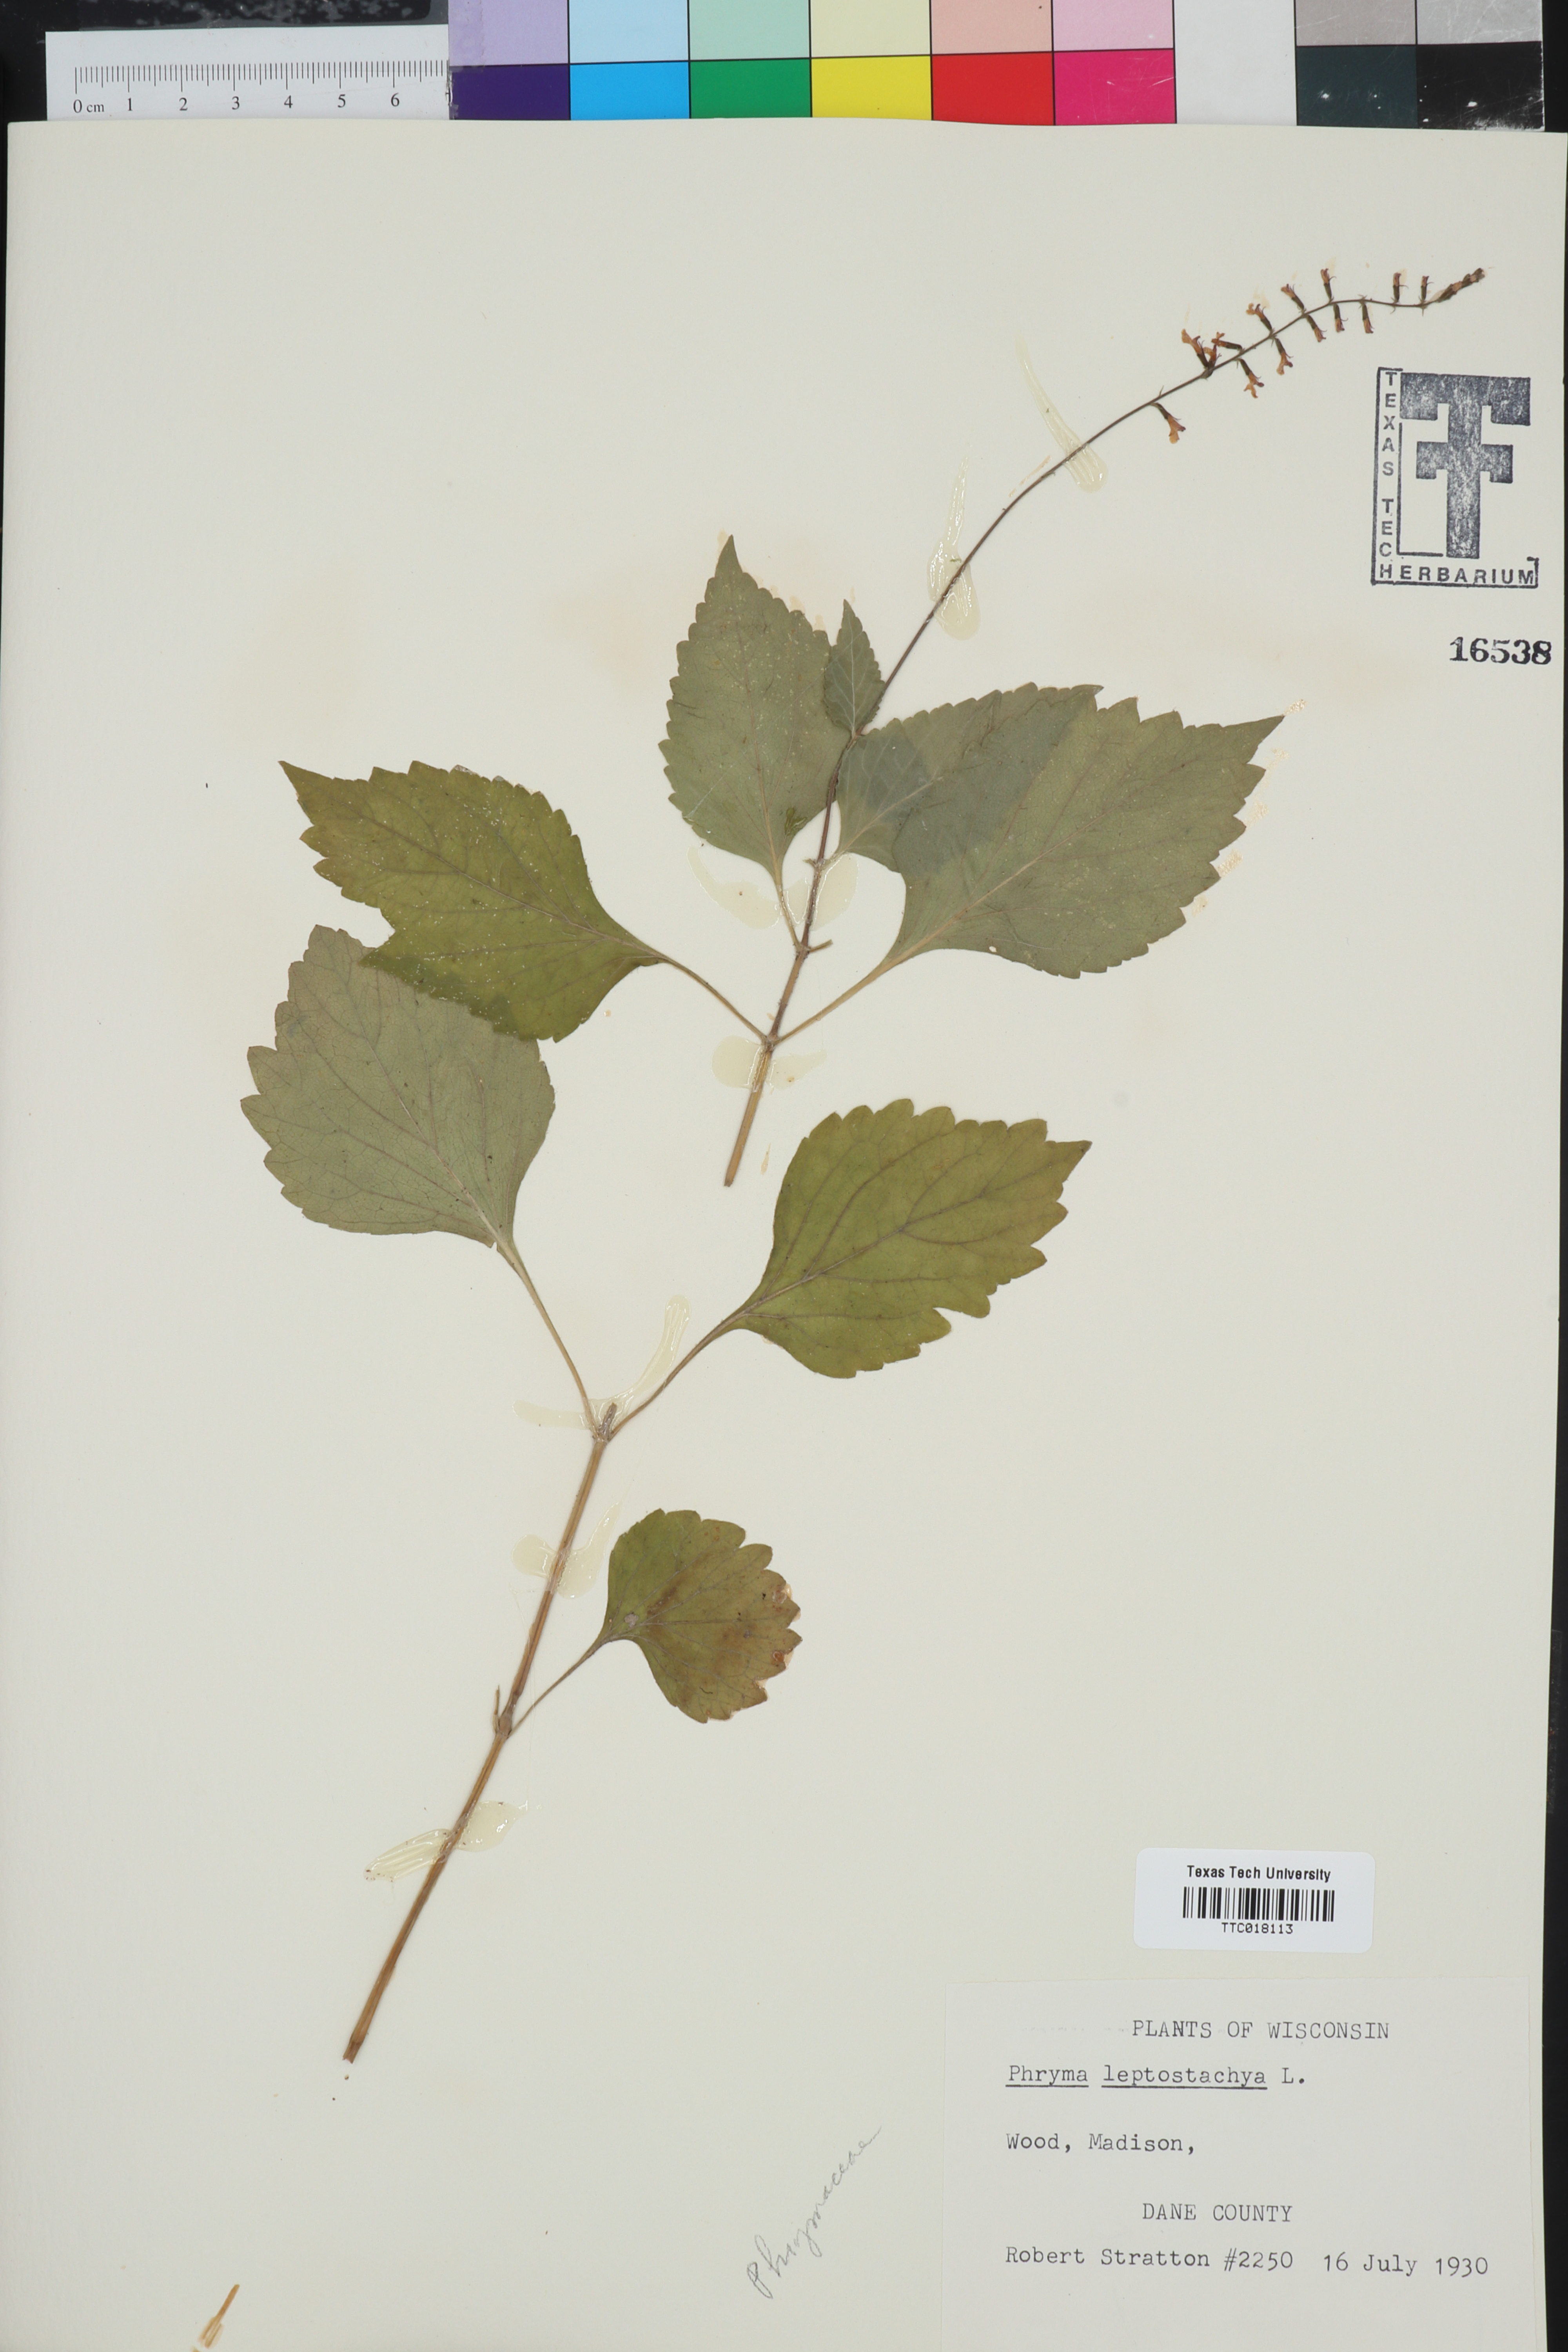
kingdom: Plantae
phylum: Tracheophyta
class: Magnoliopsida
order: Lamiales
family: Phrymaceae
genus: Phryma
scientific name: Phryma leptostachya
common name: American lopseed
